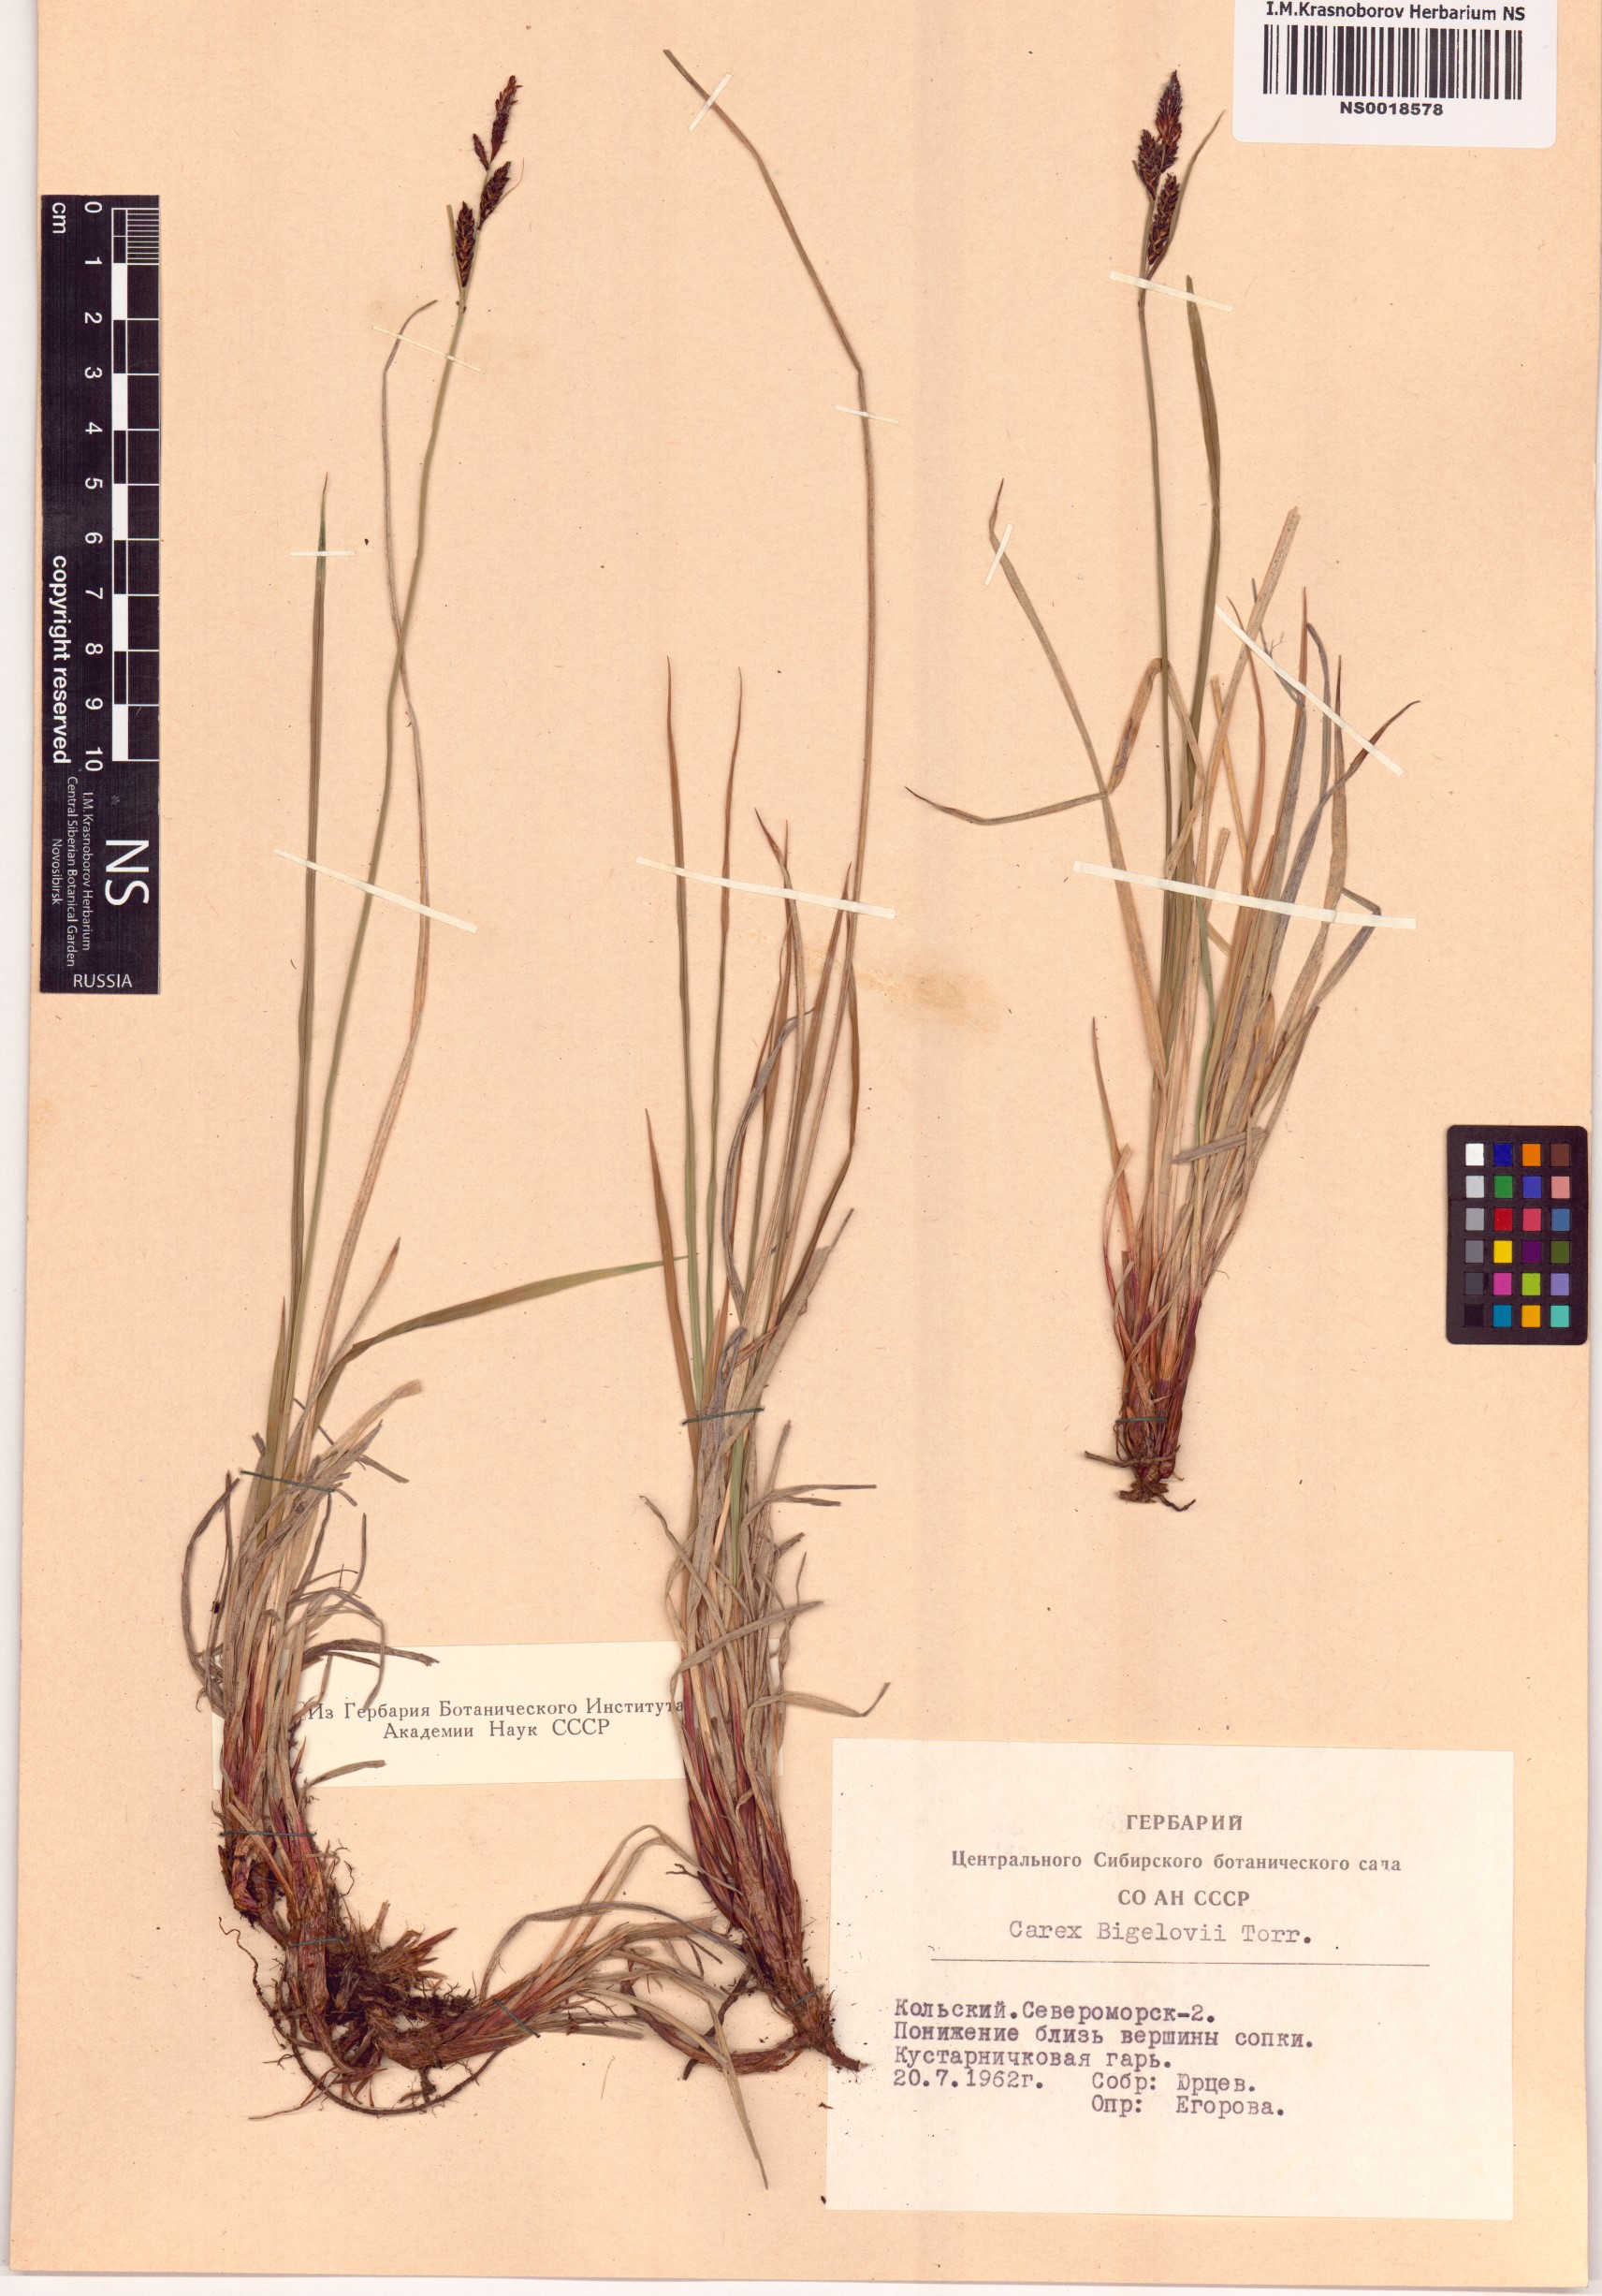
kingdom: Plantae
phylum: Tracheophyta
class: Liliopsida
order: Poales
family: Cyperaceae
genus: Carex
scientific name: Carex bigelowii
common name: Stiff sedge
